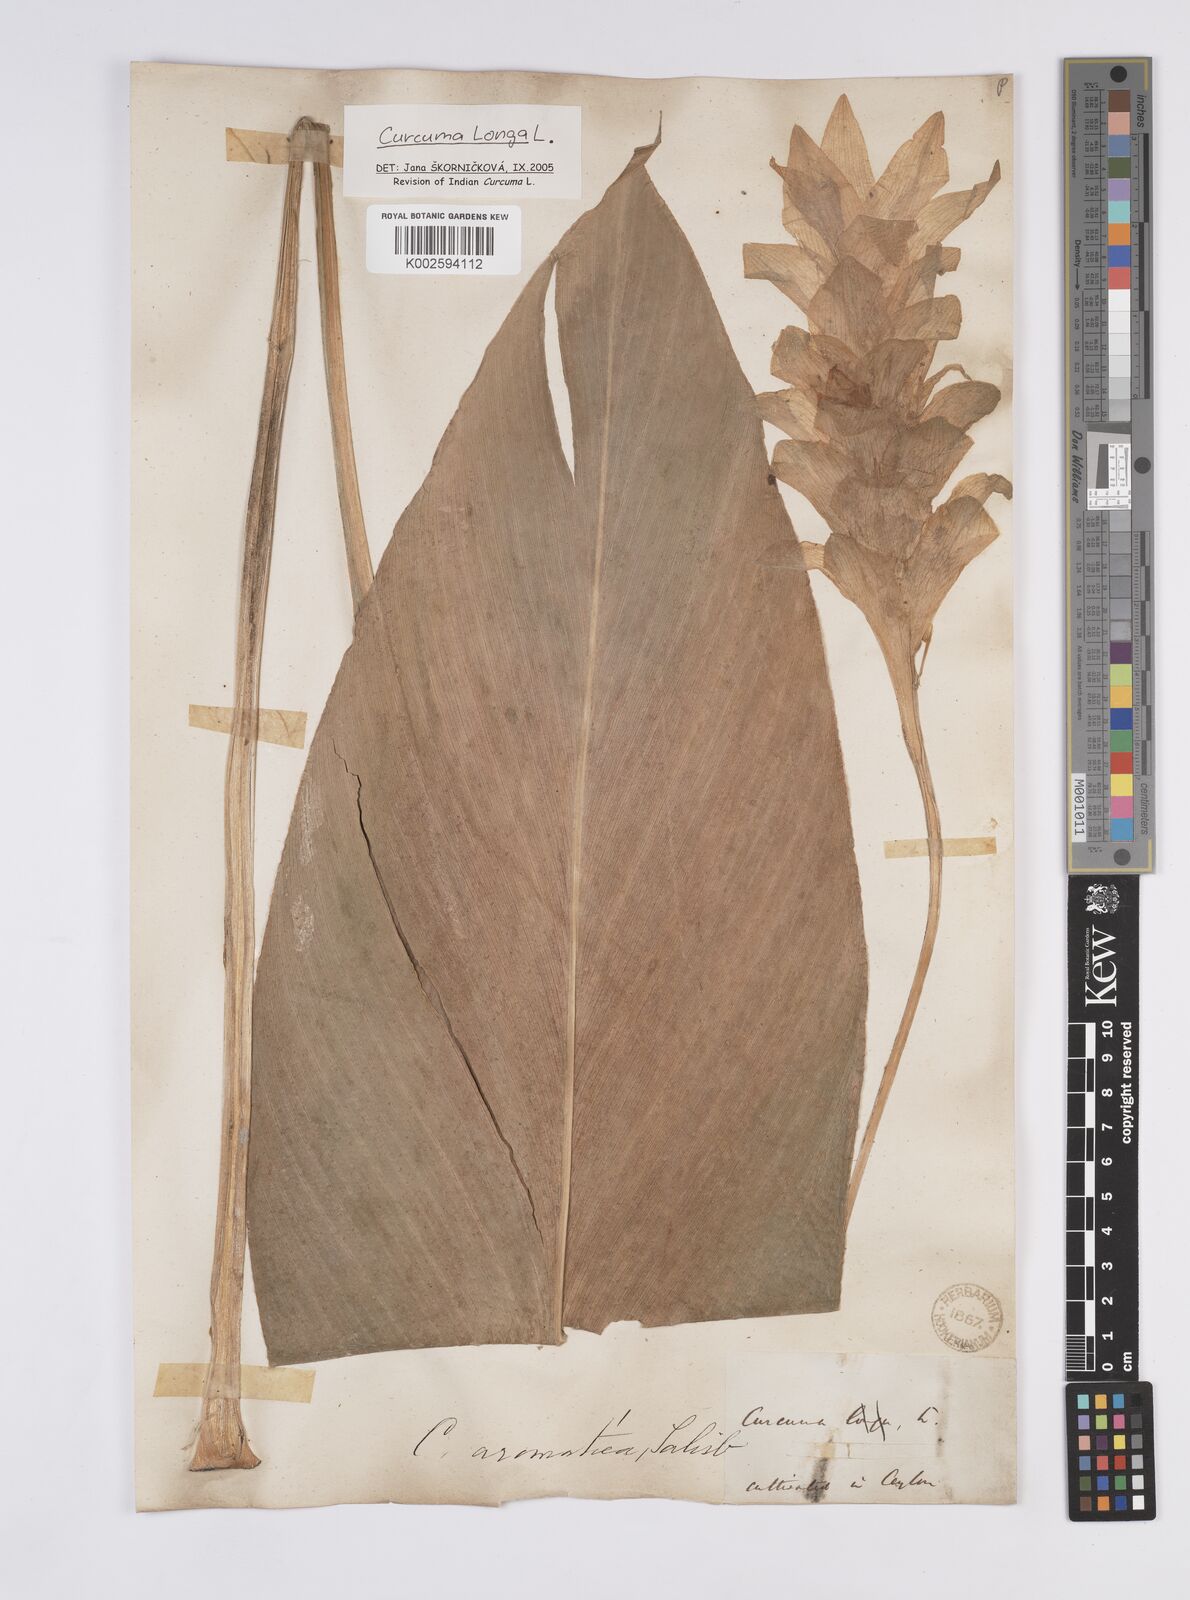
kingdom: Plantae
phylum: Tracheophyta
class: Liliopsida
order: Zingiberales
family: Zingiberaceae
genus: Curcuma
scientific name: Curcuma longa
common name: Turmeric
